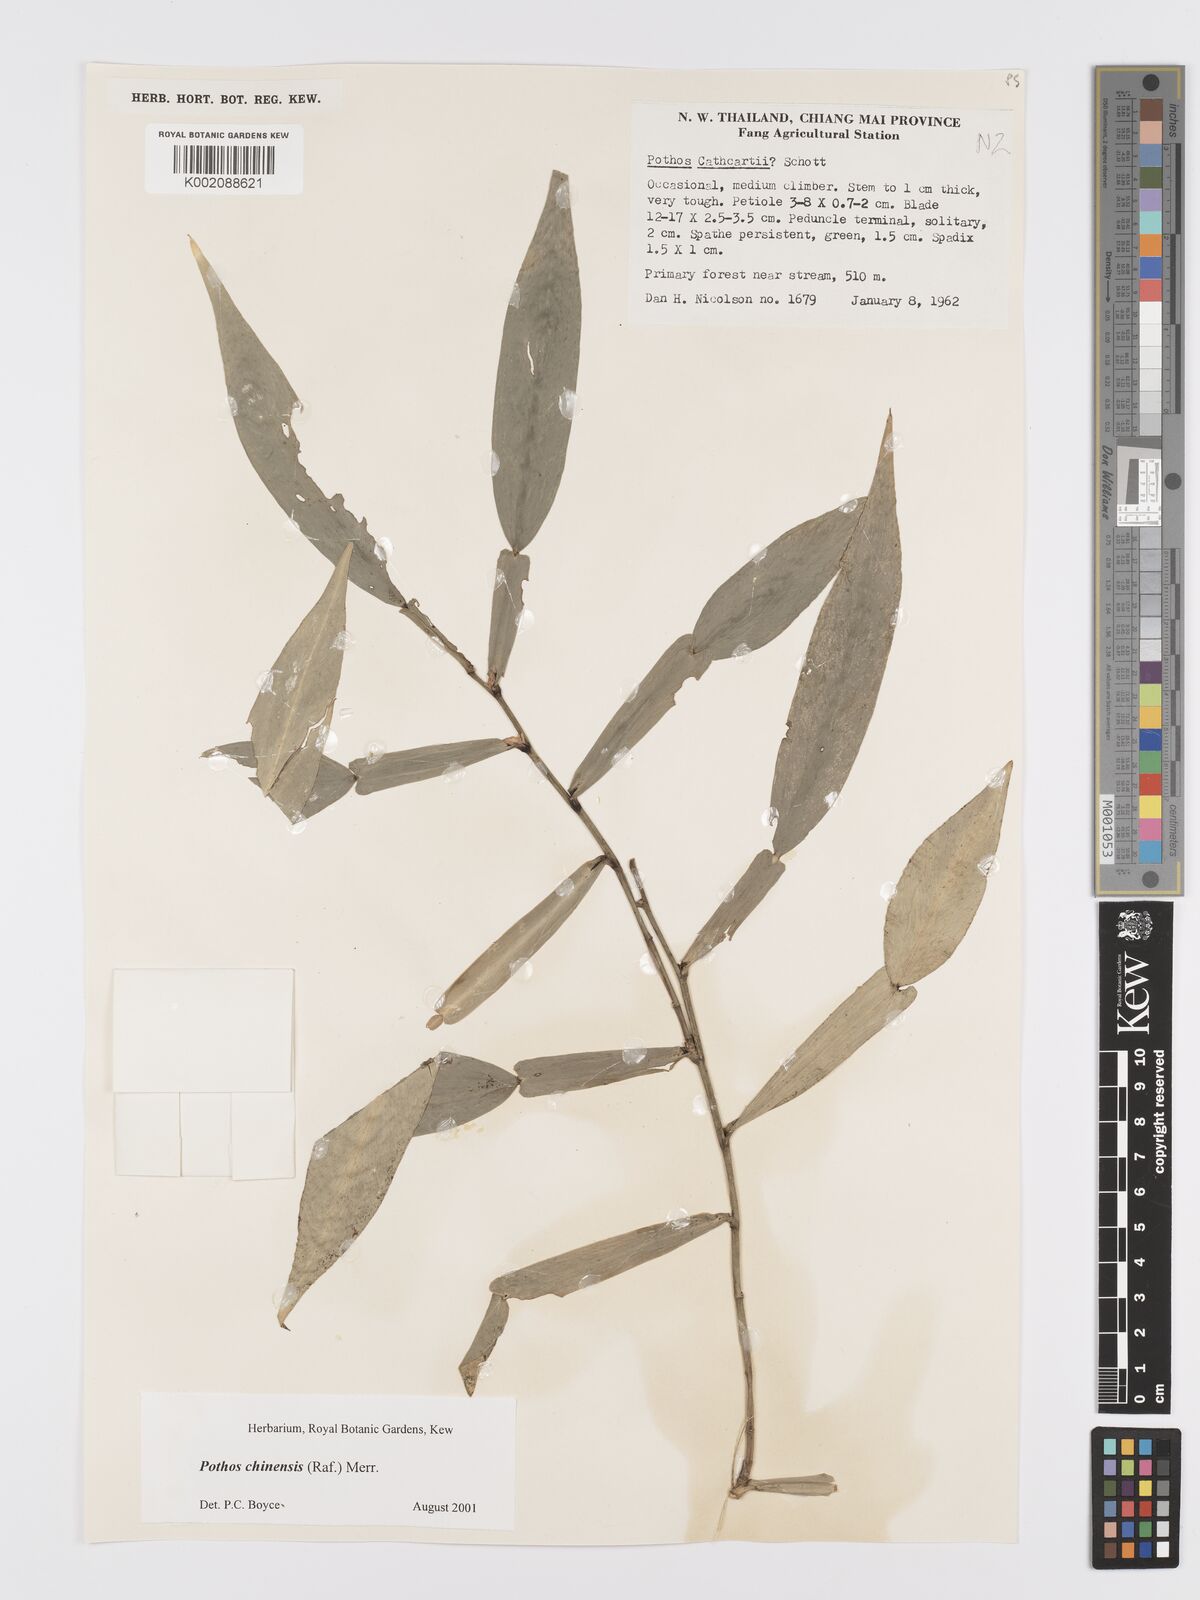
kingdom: Plantae
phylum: Tracheophyta
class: Liliopsida
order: Alismatales
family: Araceae
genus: Pothos
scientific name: Pothos chinensis
